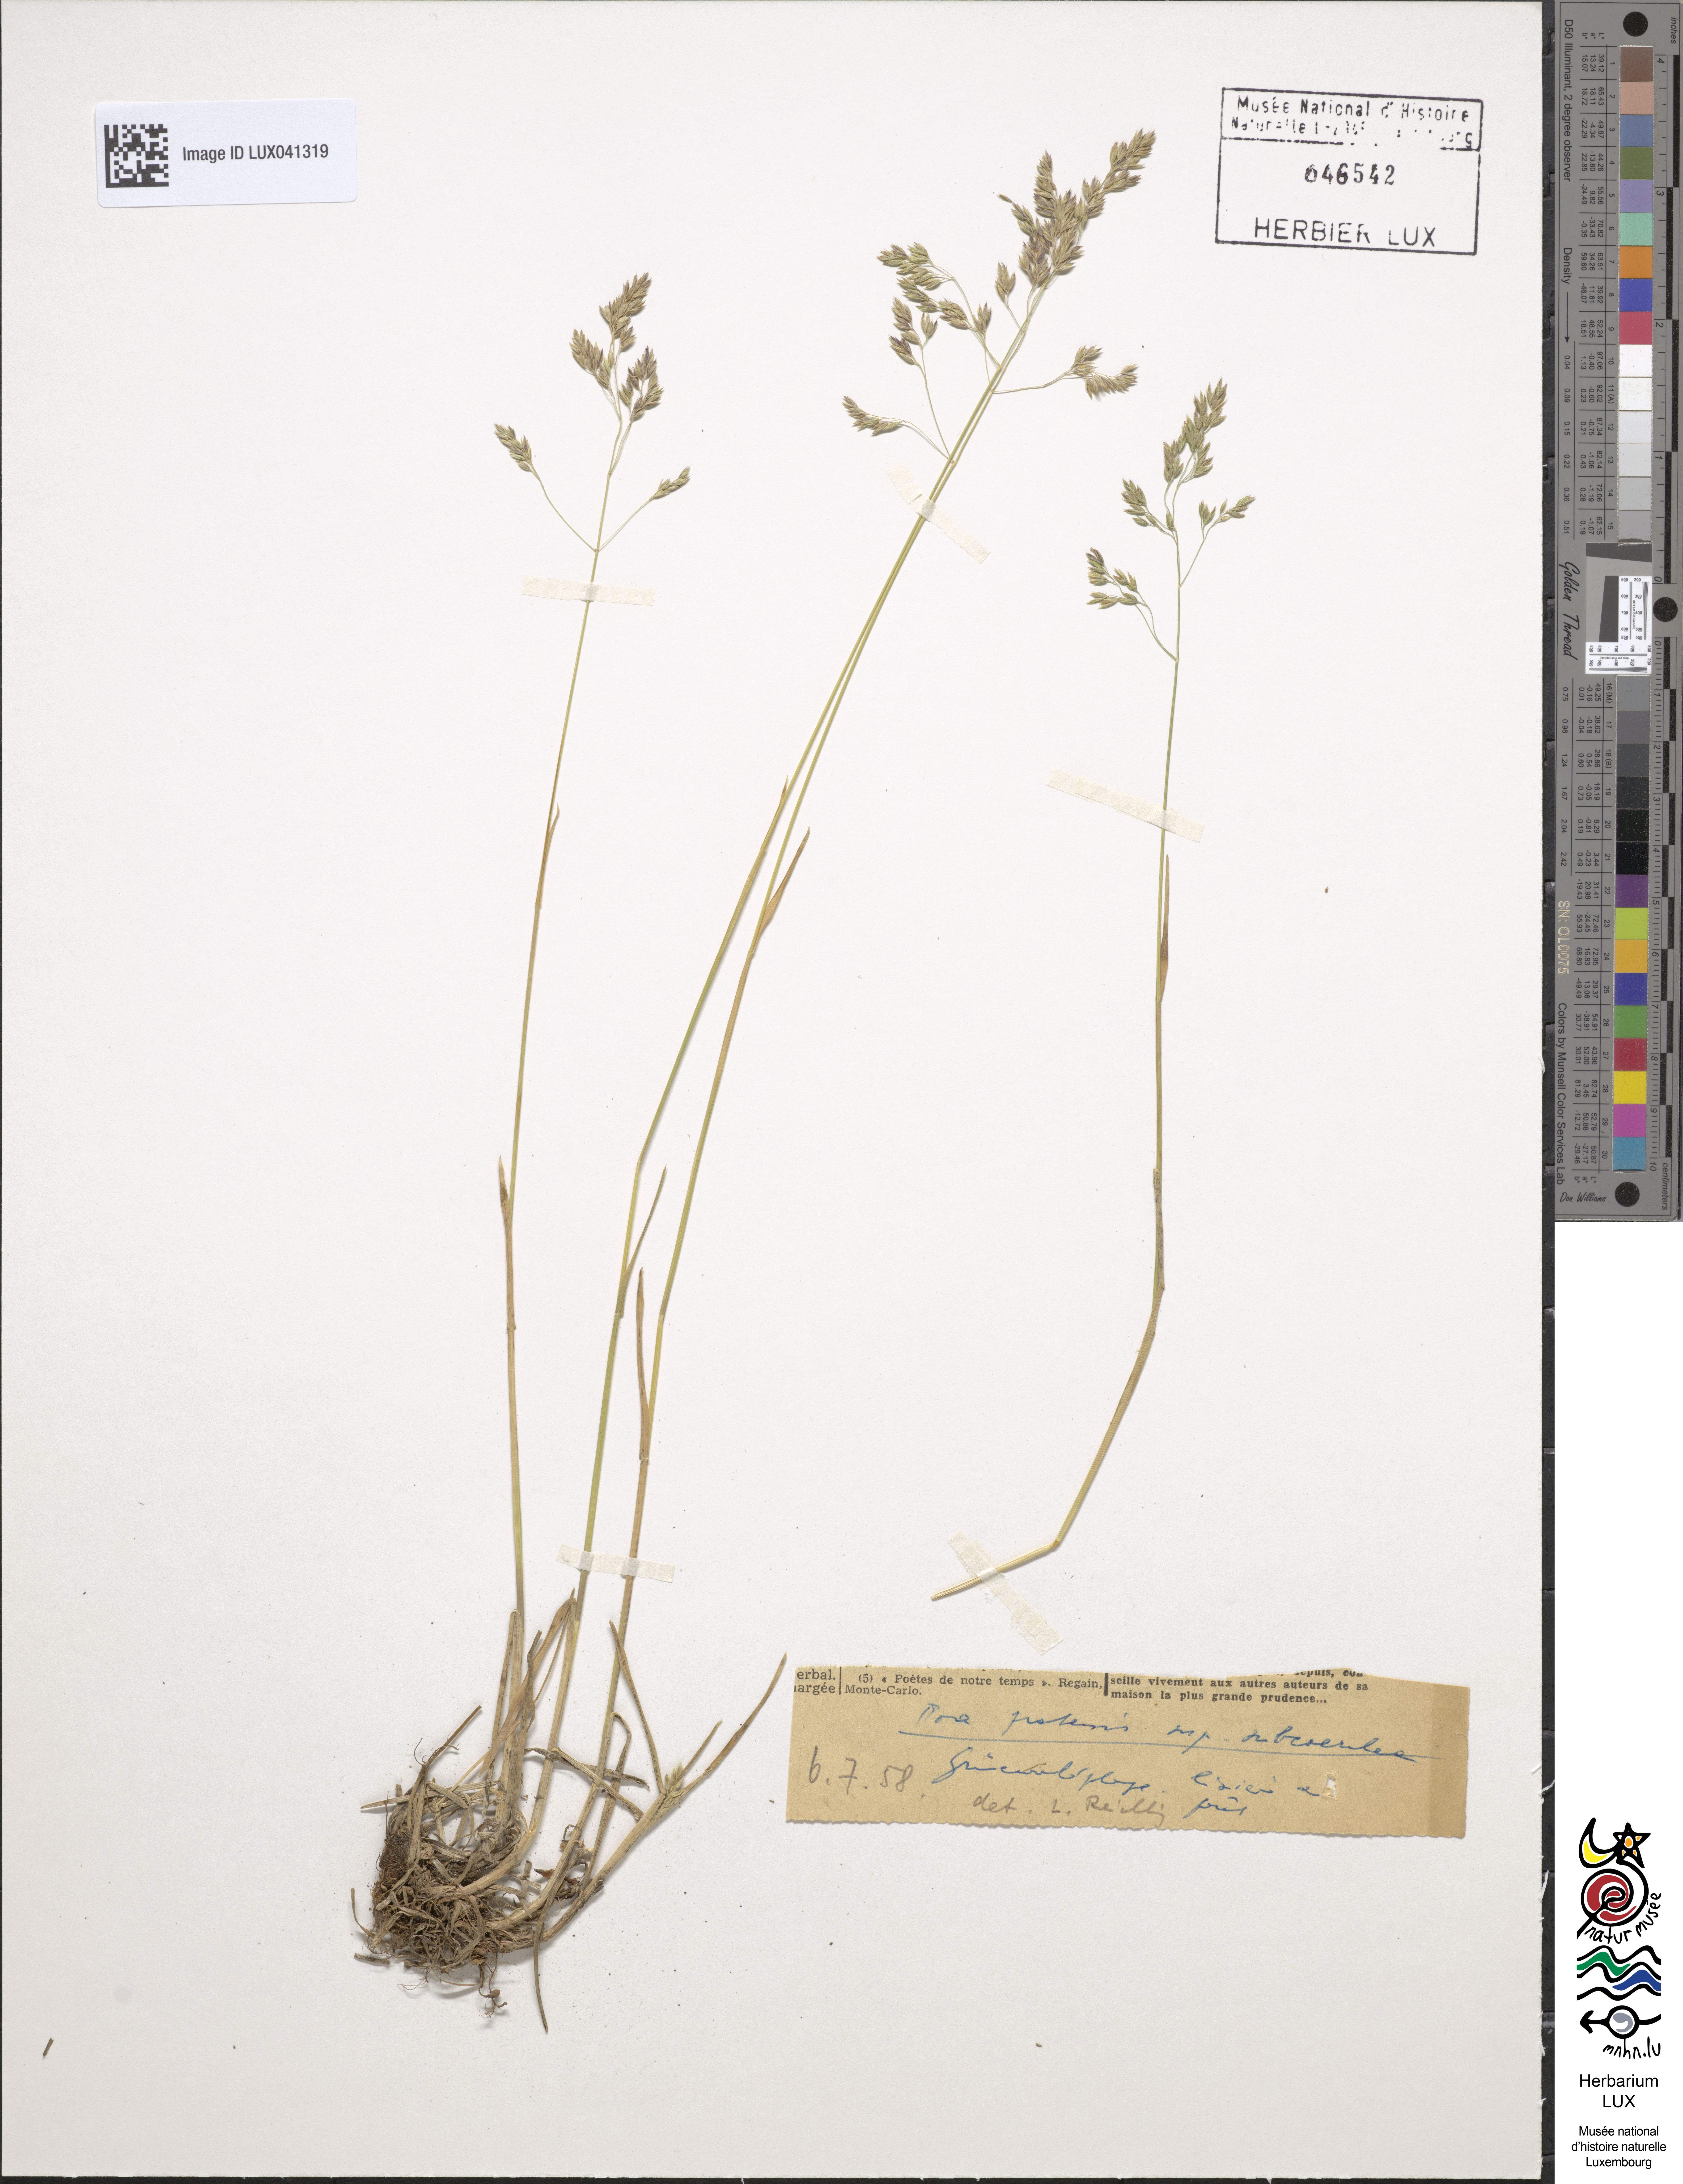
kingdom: Plantae
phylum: Tracheophyta
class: Liliopsida
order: Poales
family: Poaceae
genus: Poa
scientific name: Poa humilis
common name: Spreading meadow-grass
